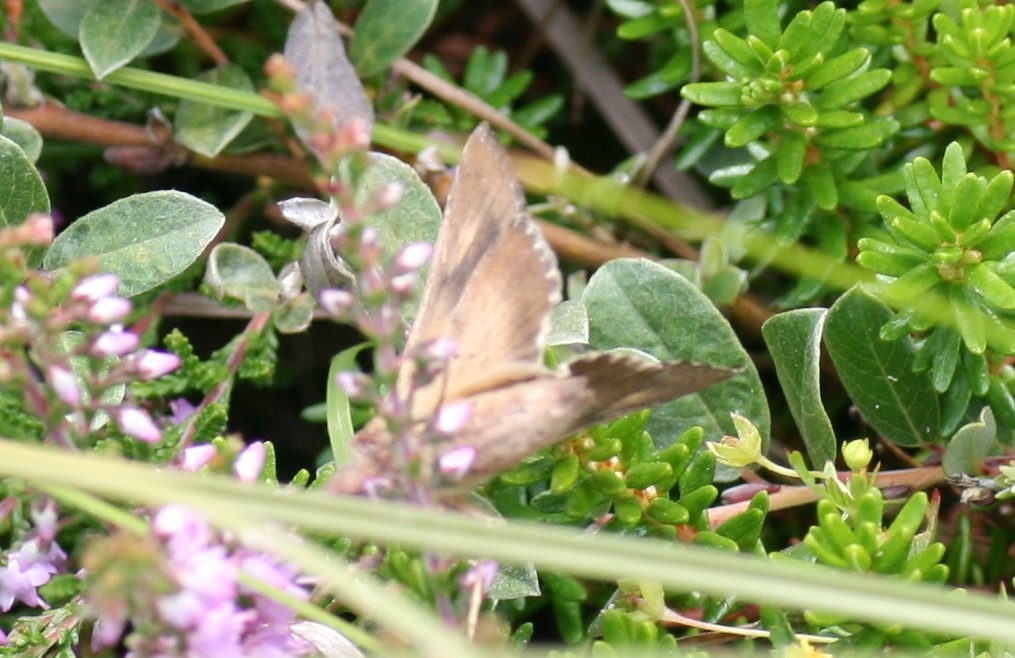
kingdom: Animalia
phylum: Arthropoda
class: Insecta
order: Lepidoptera
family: Noctuidae
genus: Autographa
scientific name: Autographa gamma
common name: Gammaugle
